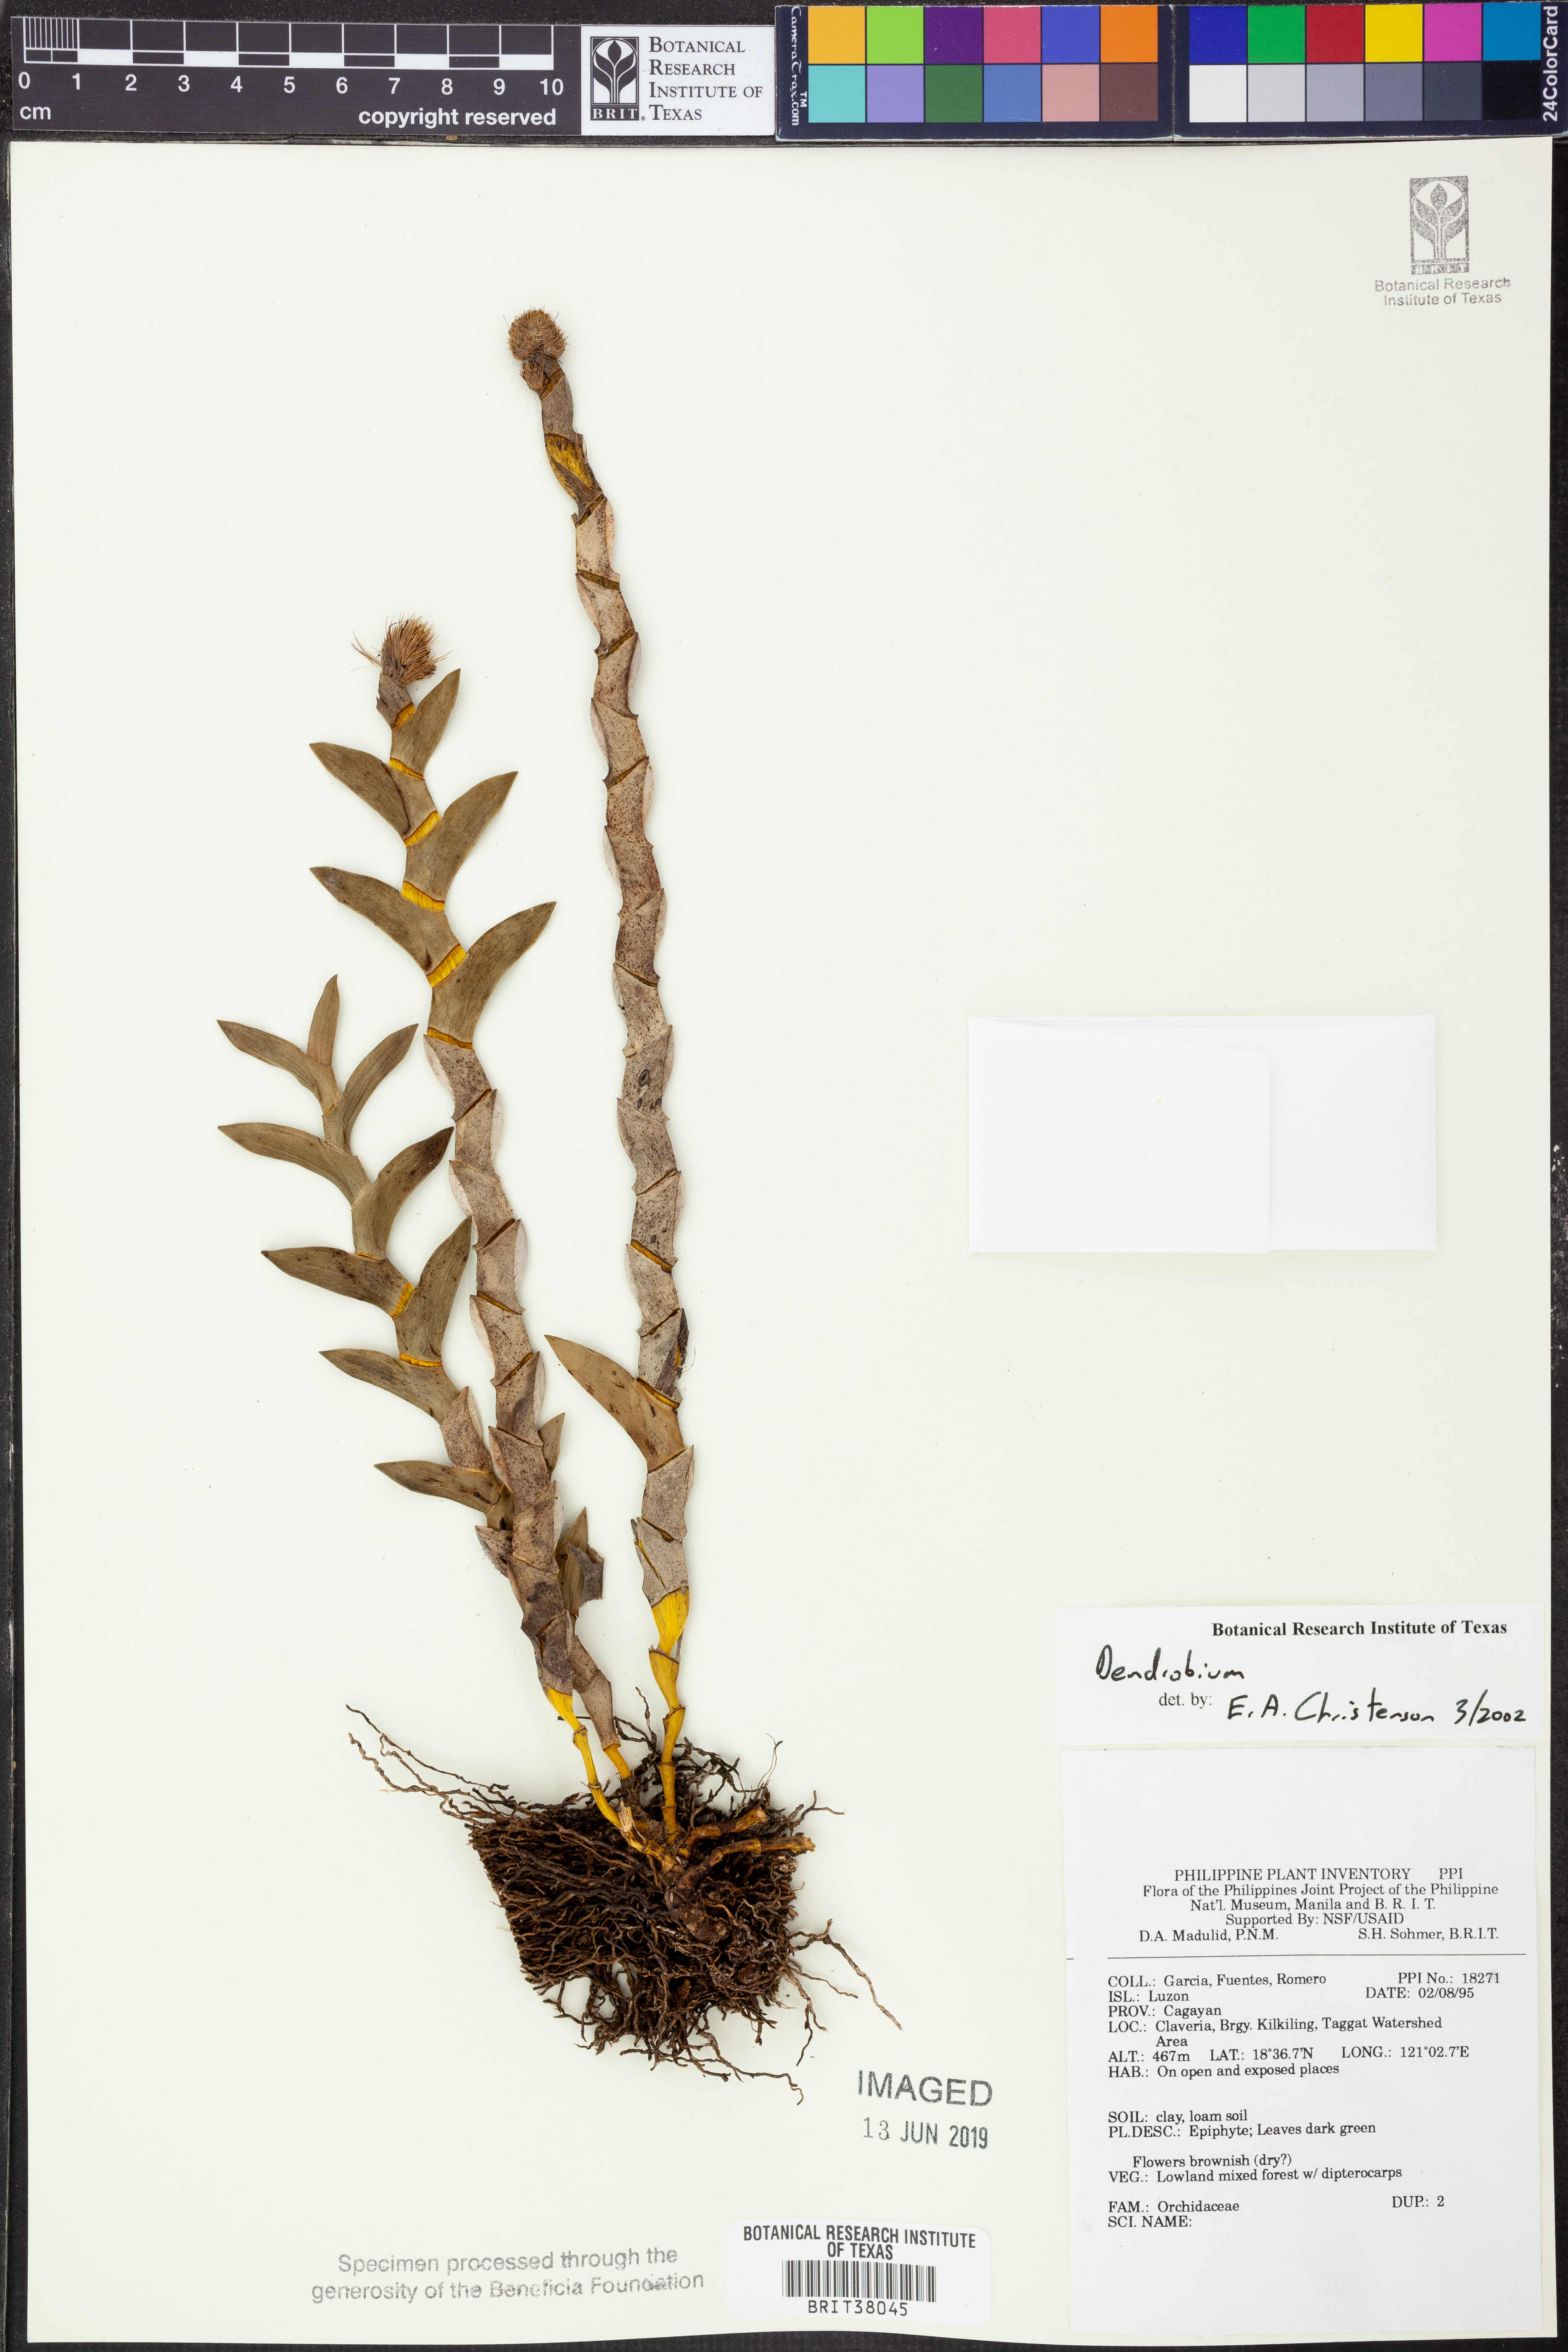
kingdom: Plantae
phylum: Tracheophyta
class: Liliopsida
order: Asparagales
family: Orchidaceae
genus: Dendrobium
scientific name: Dendrobium
